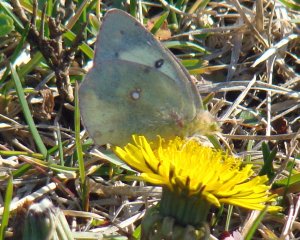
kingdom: Animalia
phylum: Arthropoda
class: Insecta
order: Lepidoptera
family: Pieridae
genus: Colias
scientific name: Colias philodice
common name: Clouded Sulphur
